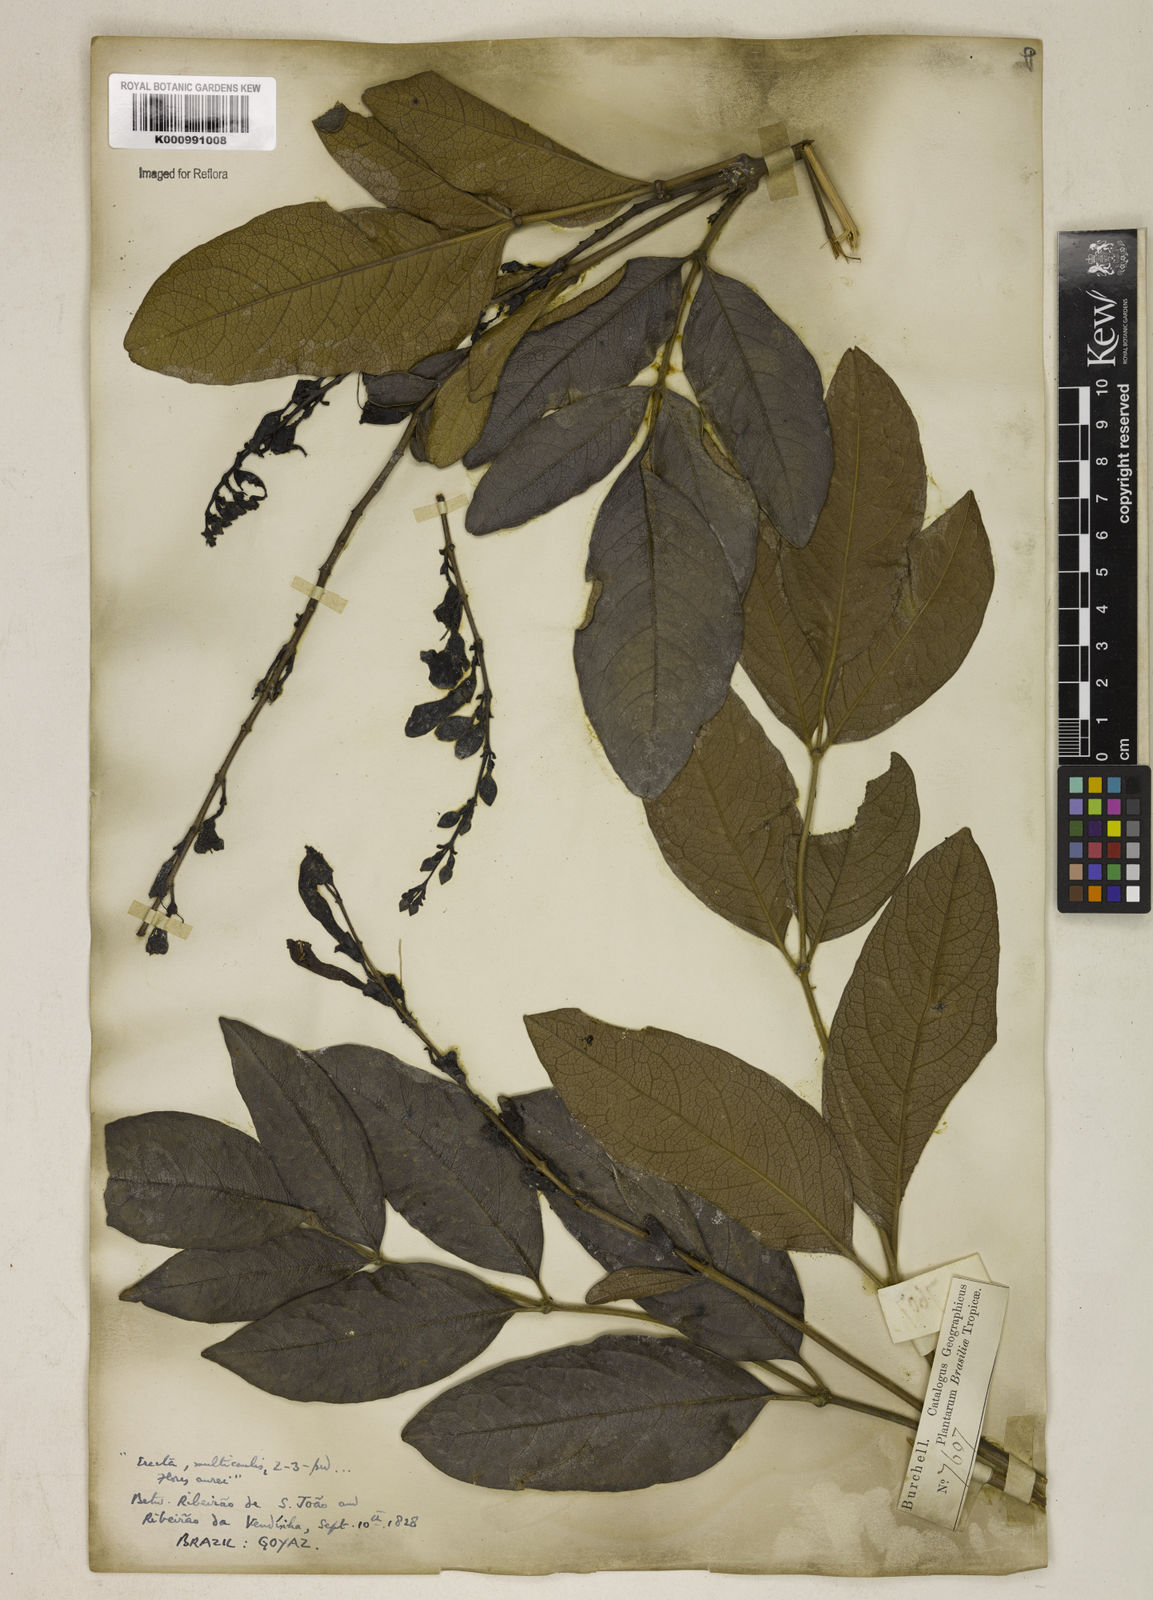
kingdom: Plantae
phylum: Tracheophyta
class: Magnoliopsida
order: Lamiales
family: Bignoniaceae
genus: Adenocalymma
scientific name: Adenocalymma axillare
